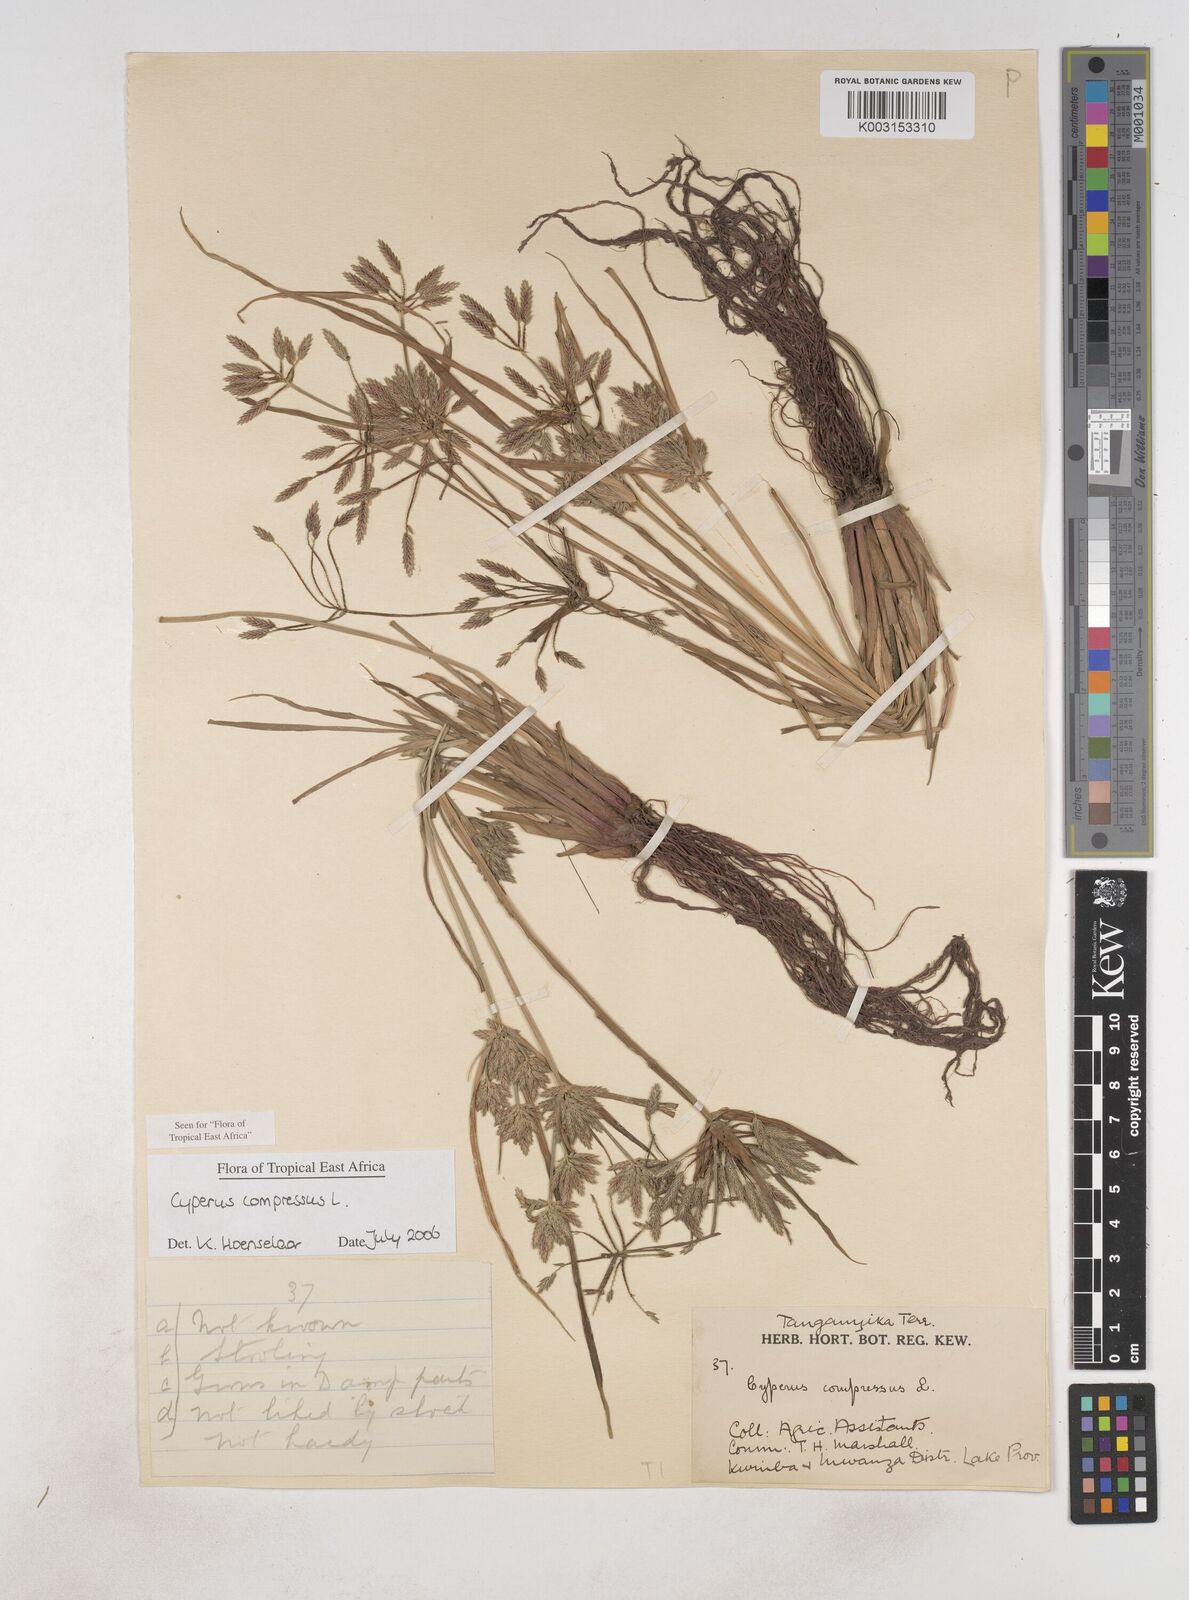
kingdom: Plantae
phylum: Tracheophyta
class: Liliopsida
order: Poales
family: Cyperaceae
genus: Cyperus
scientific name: Cyperus compressus
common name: Poorland flatsedge
